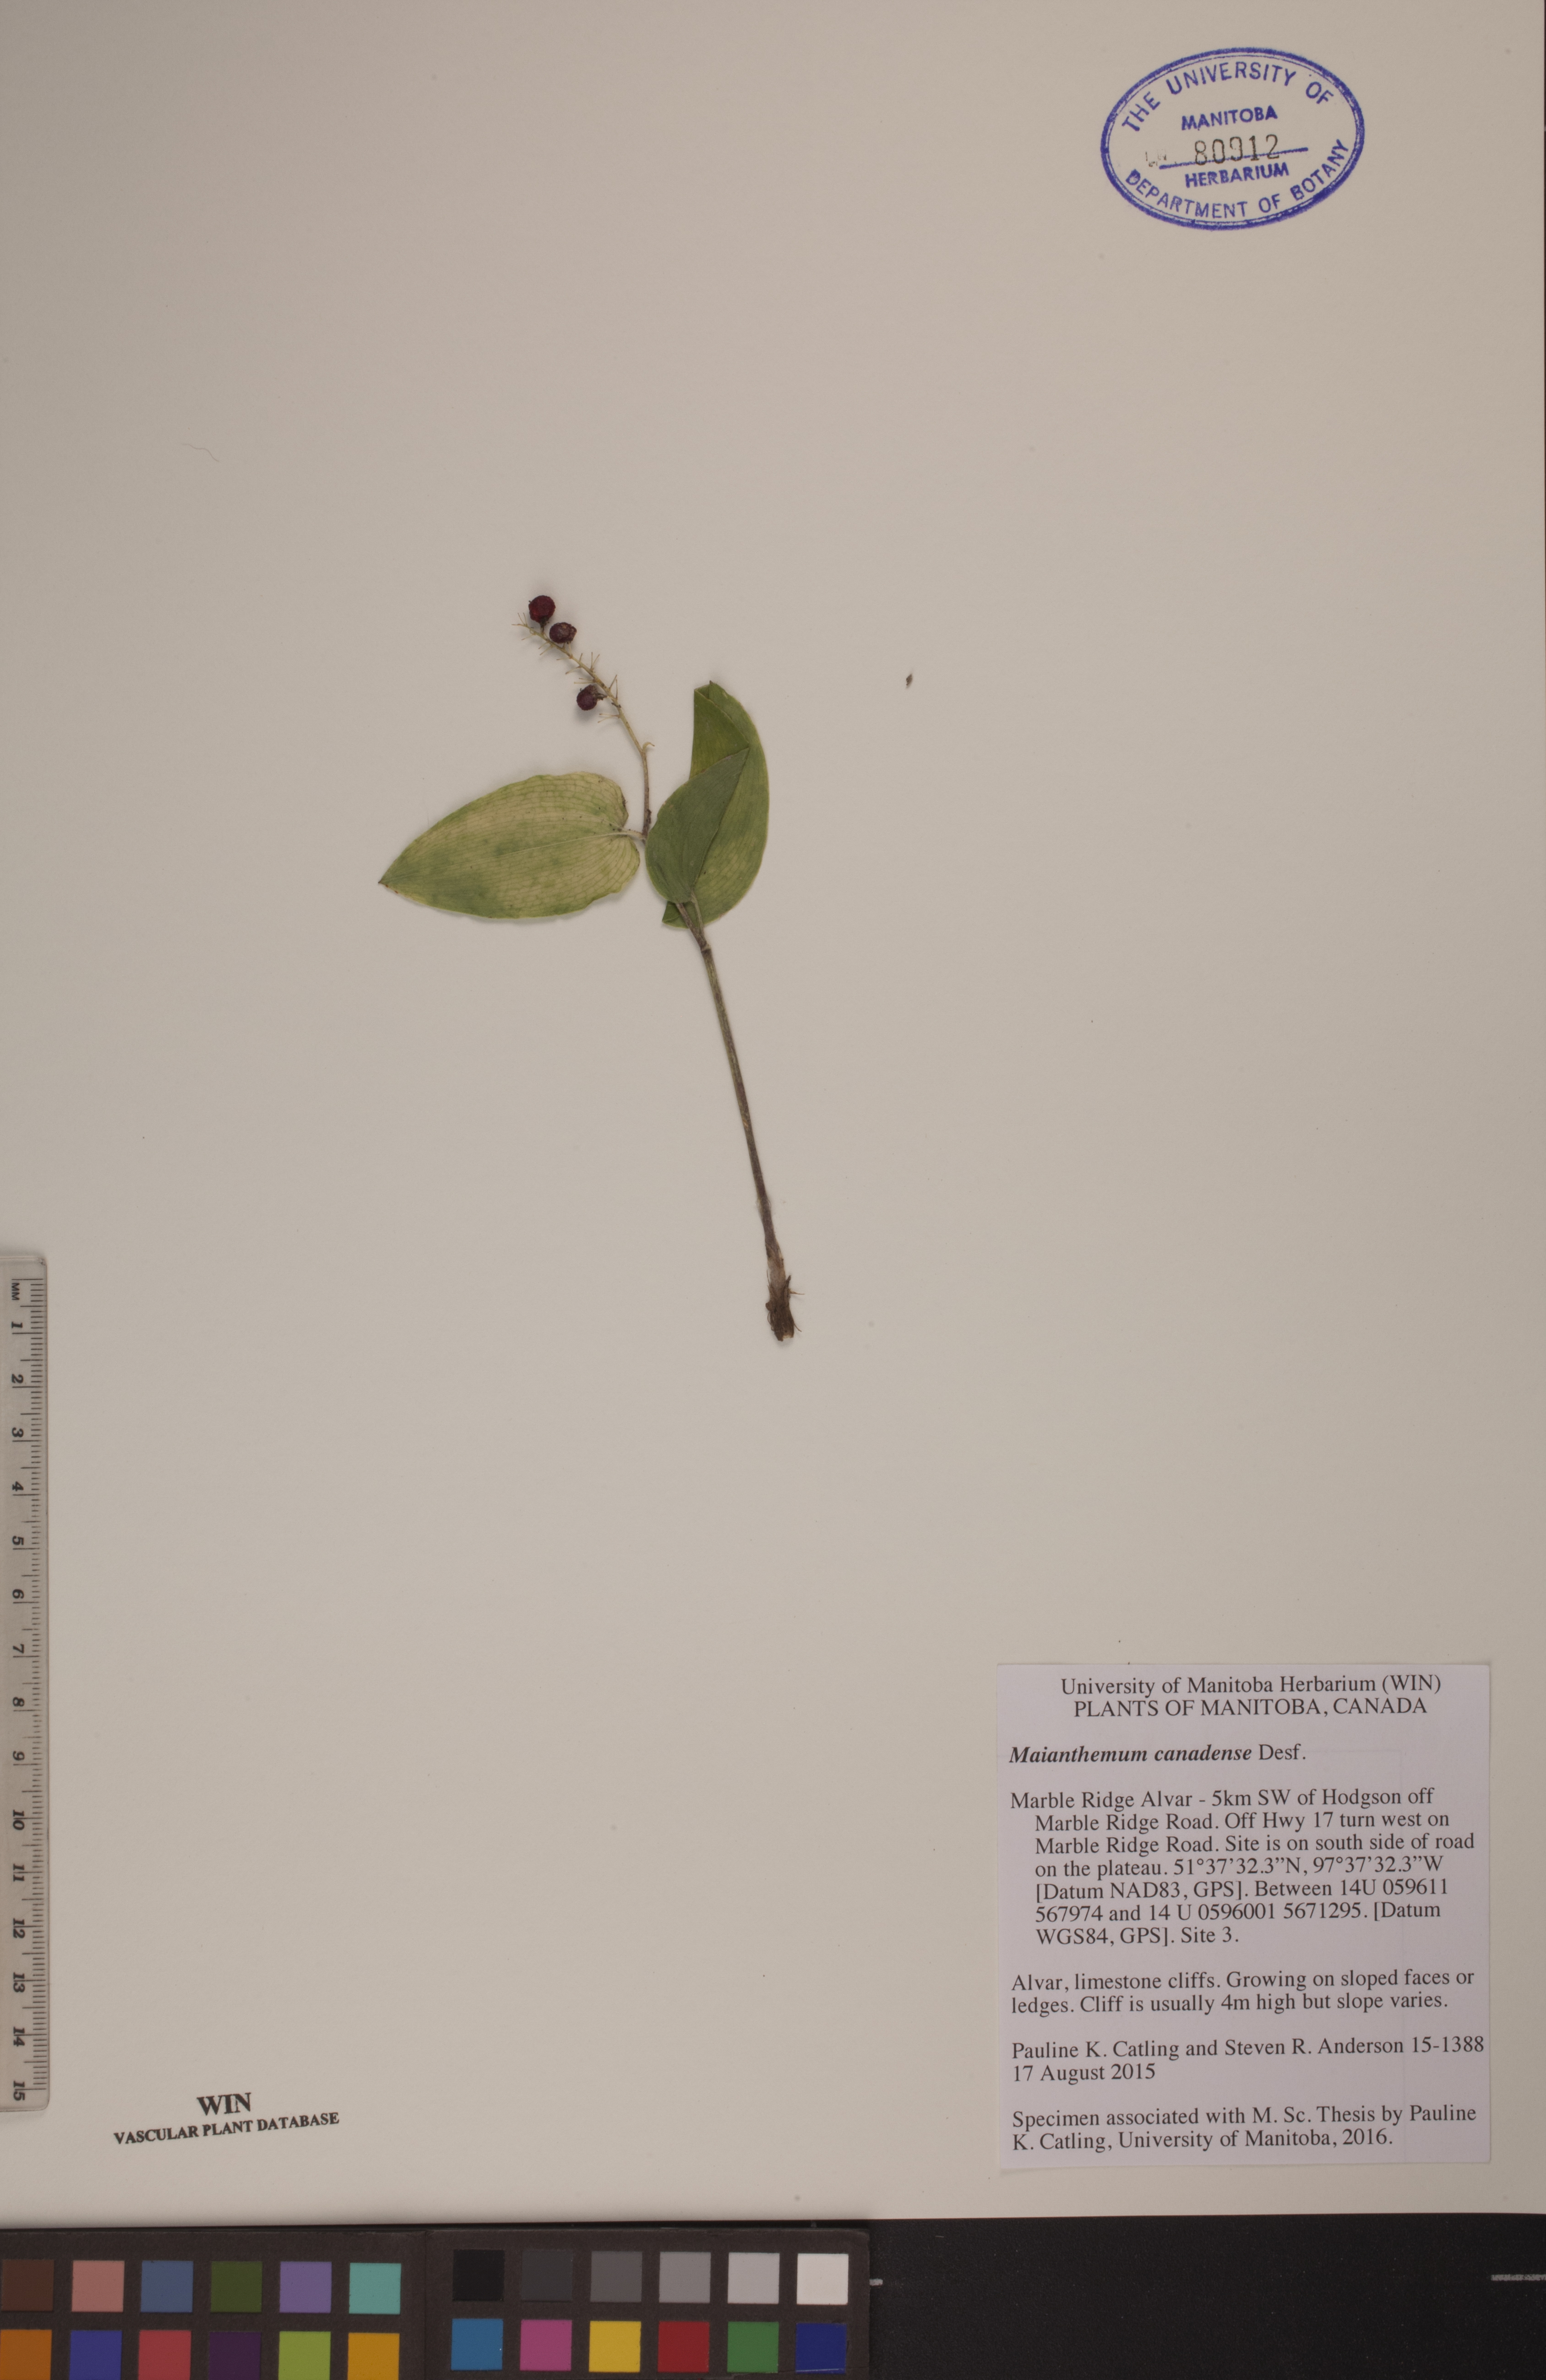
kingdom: Plantae
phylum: Tracheophyta
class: Liliopsida
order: Asparagales
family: Asparagaceae
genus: Maianthemum
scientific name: Maianthemum canadense
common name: False lily-of-the-valley
